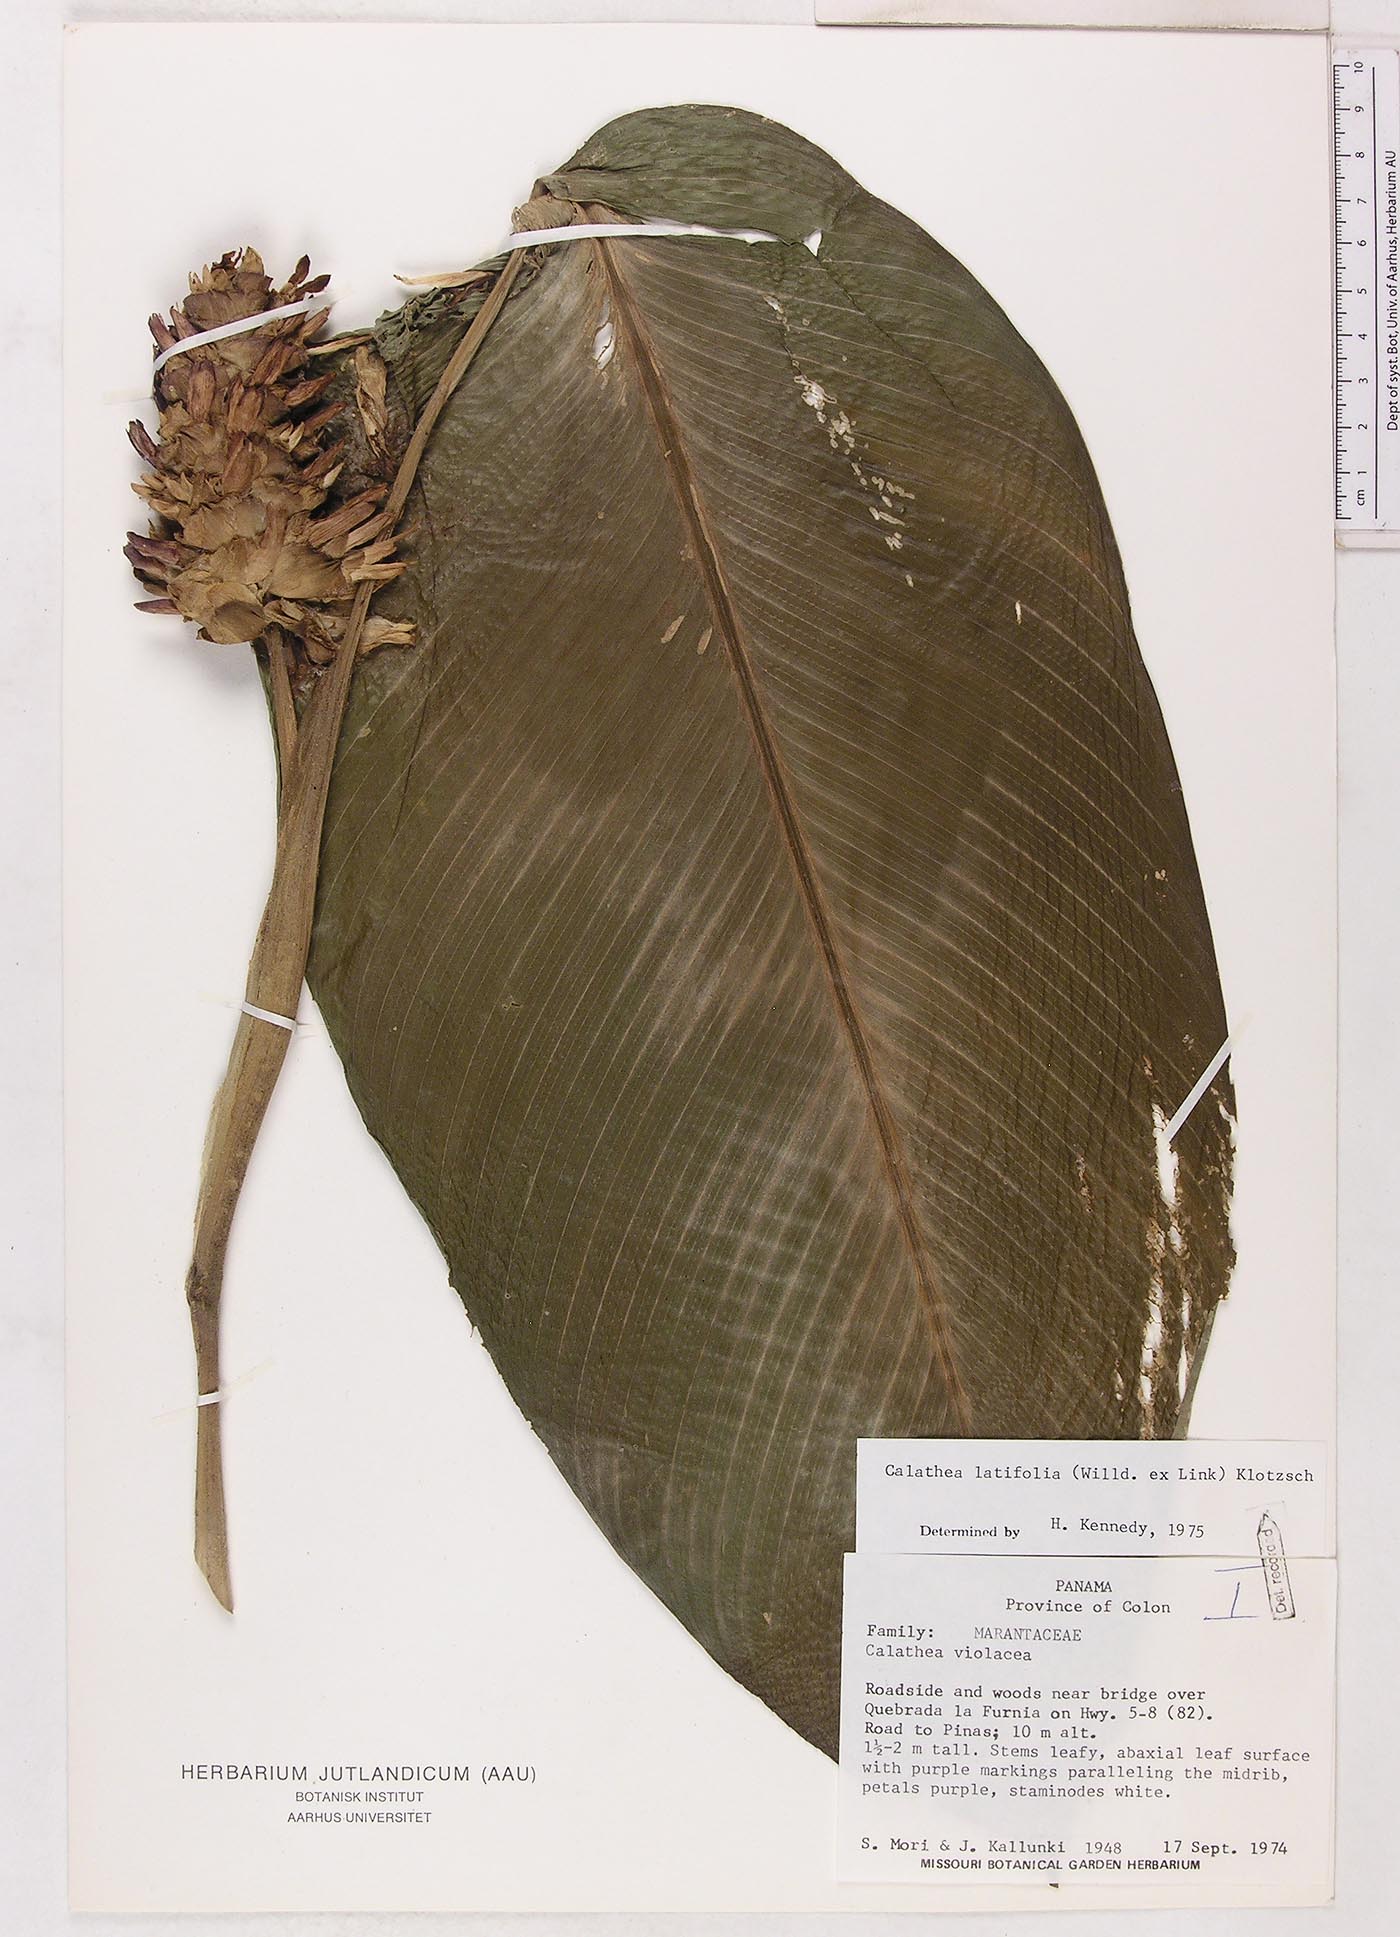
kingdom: Plantae
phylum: Tracheophyta
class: Liliopsida
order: Zingiberales
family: Marantaceae
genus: Goeppertia
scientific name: Goeppertia latifolia
